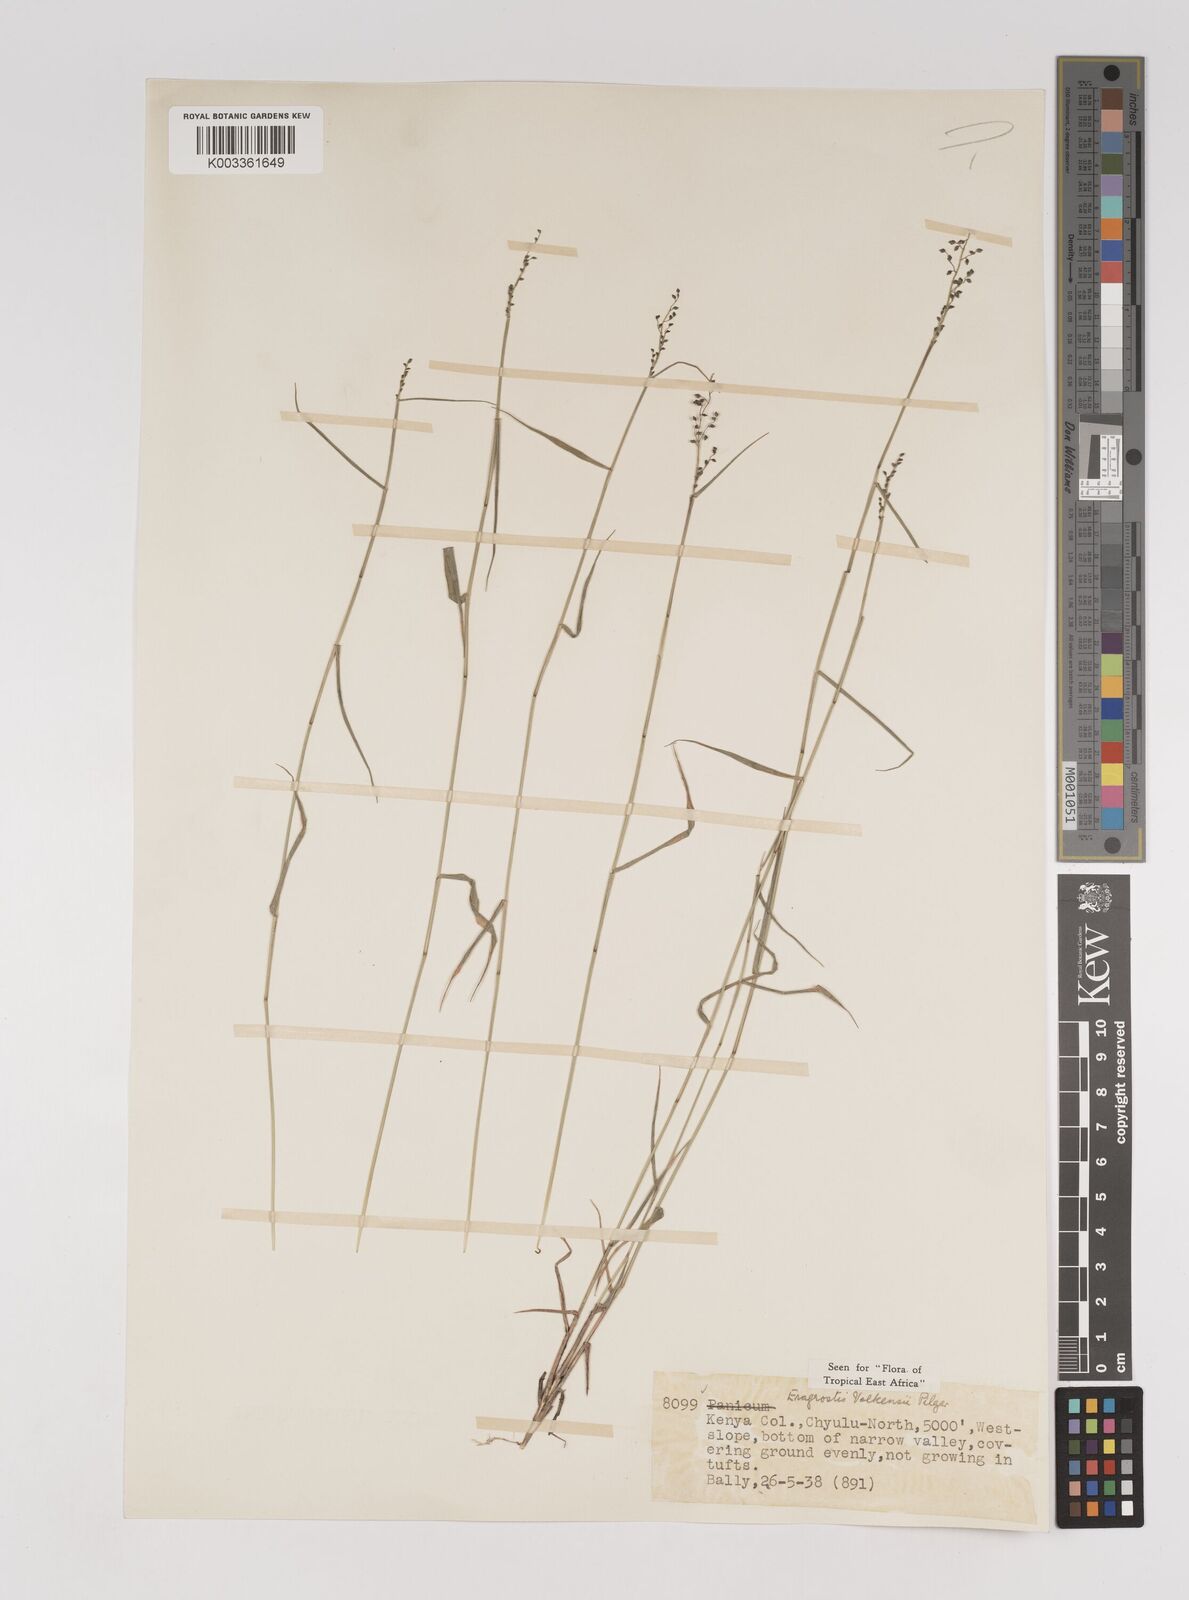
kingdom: Plantae
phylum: Tracheophyta
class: Liliopsida
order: Poales
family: Poaceae
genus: Eragrostis
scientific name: Eragrostis volkensii
